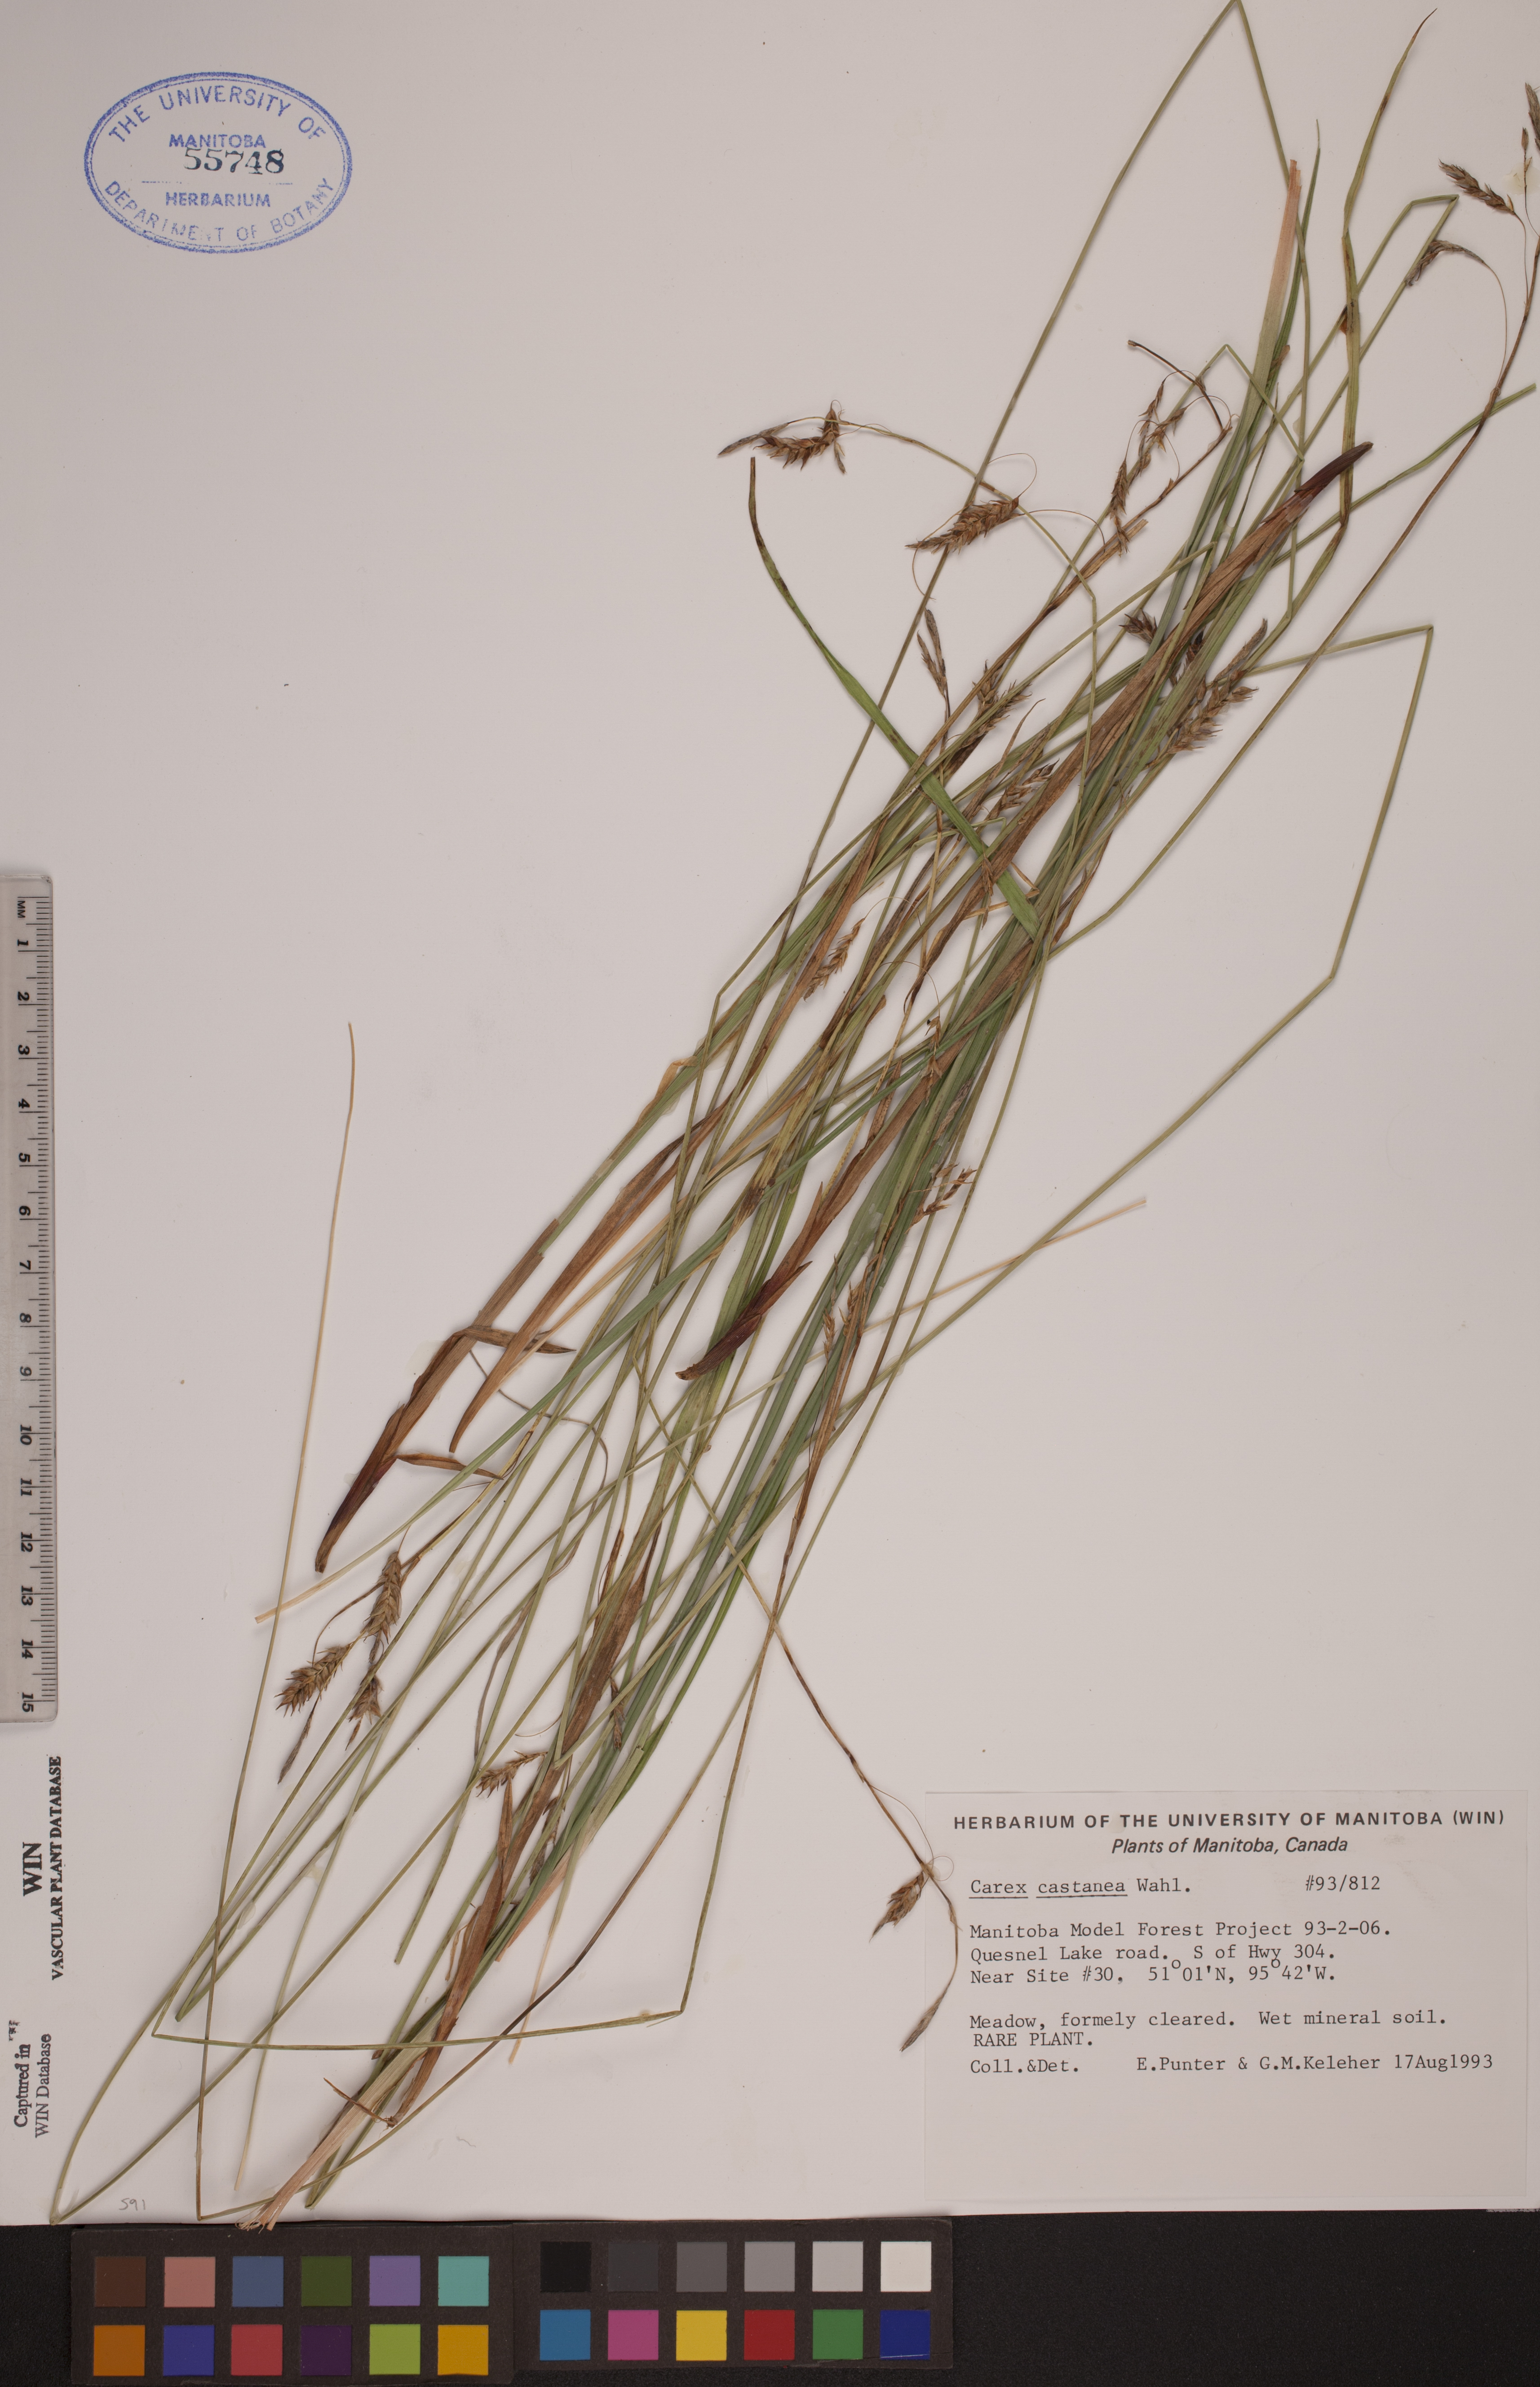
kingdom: Plantae
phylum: Tracheophyta
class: Liliopsida
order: Poales
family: Cyperaceae
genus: Carex
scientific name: Carex castanea
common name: Chestnut sedge
